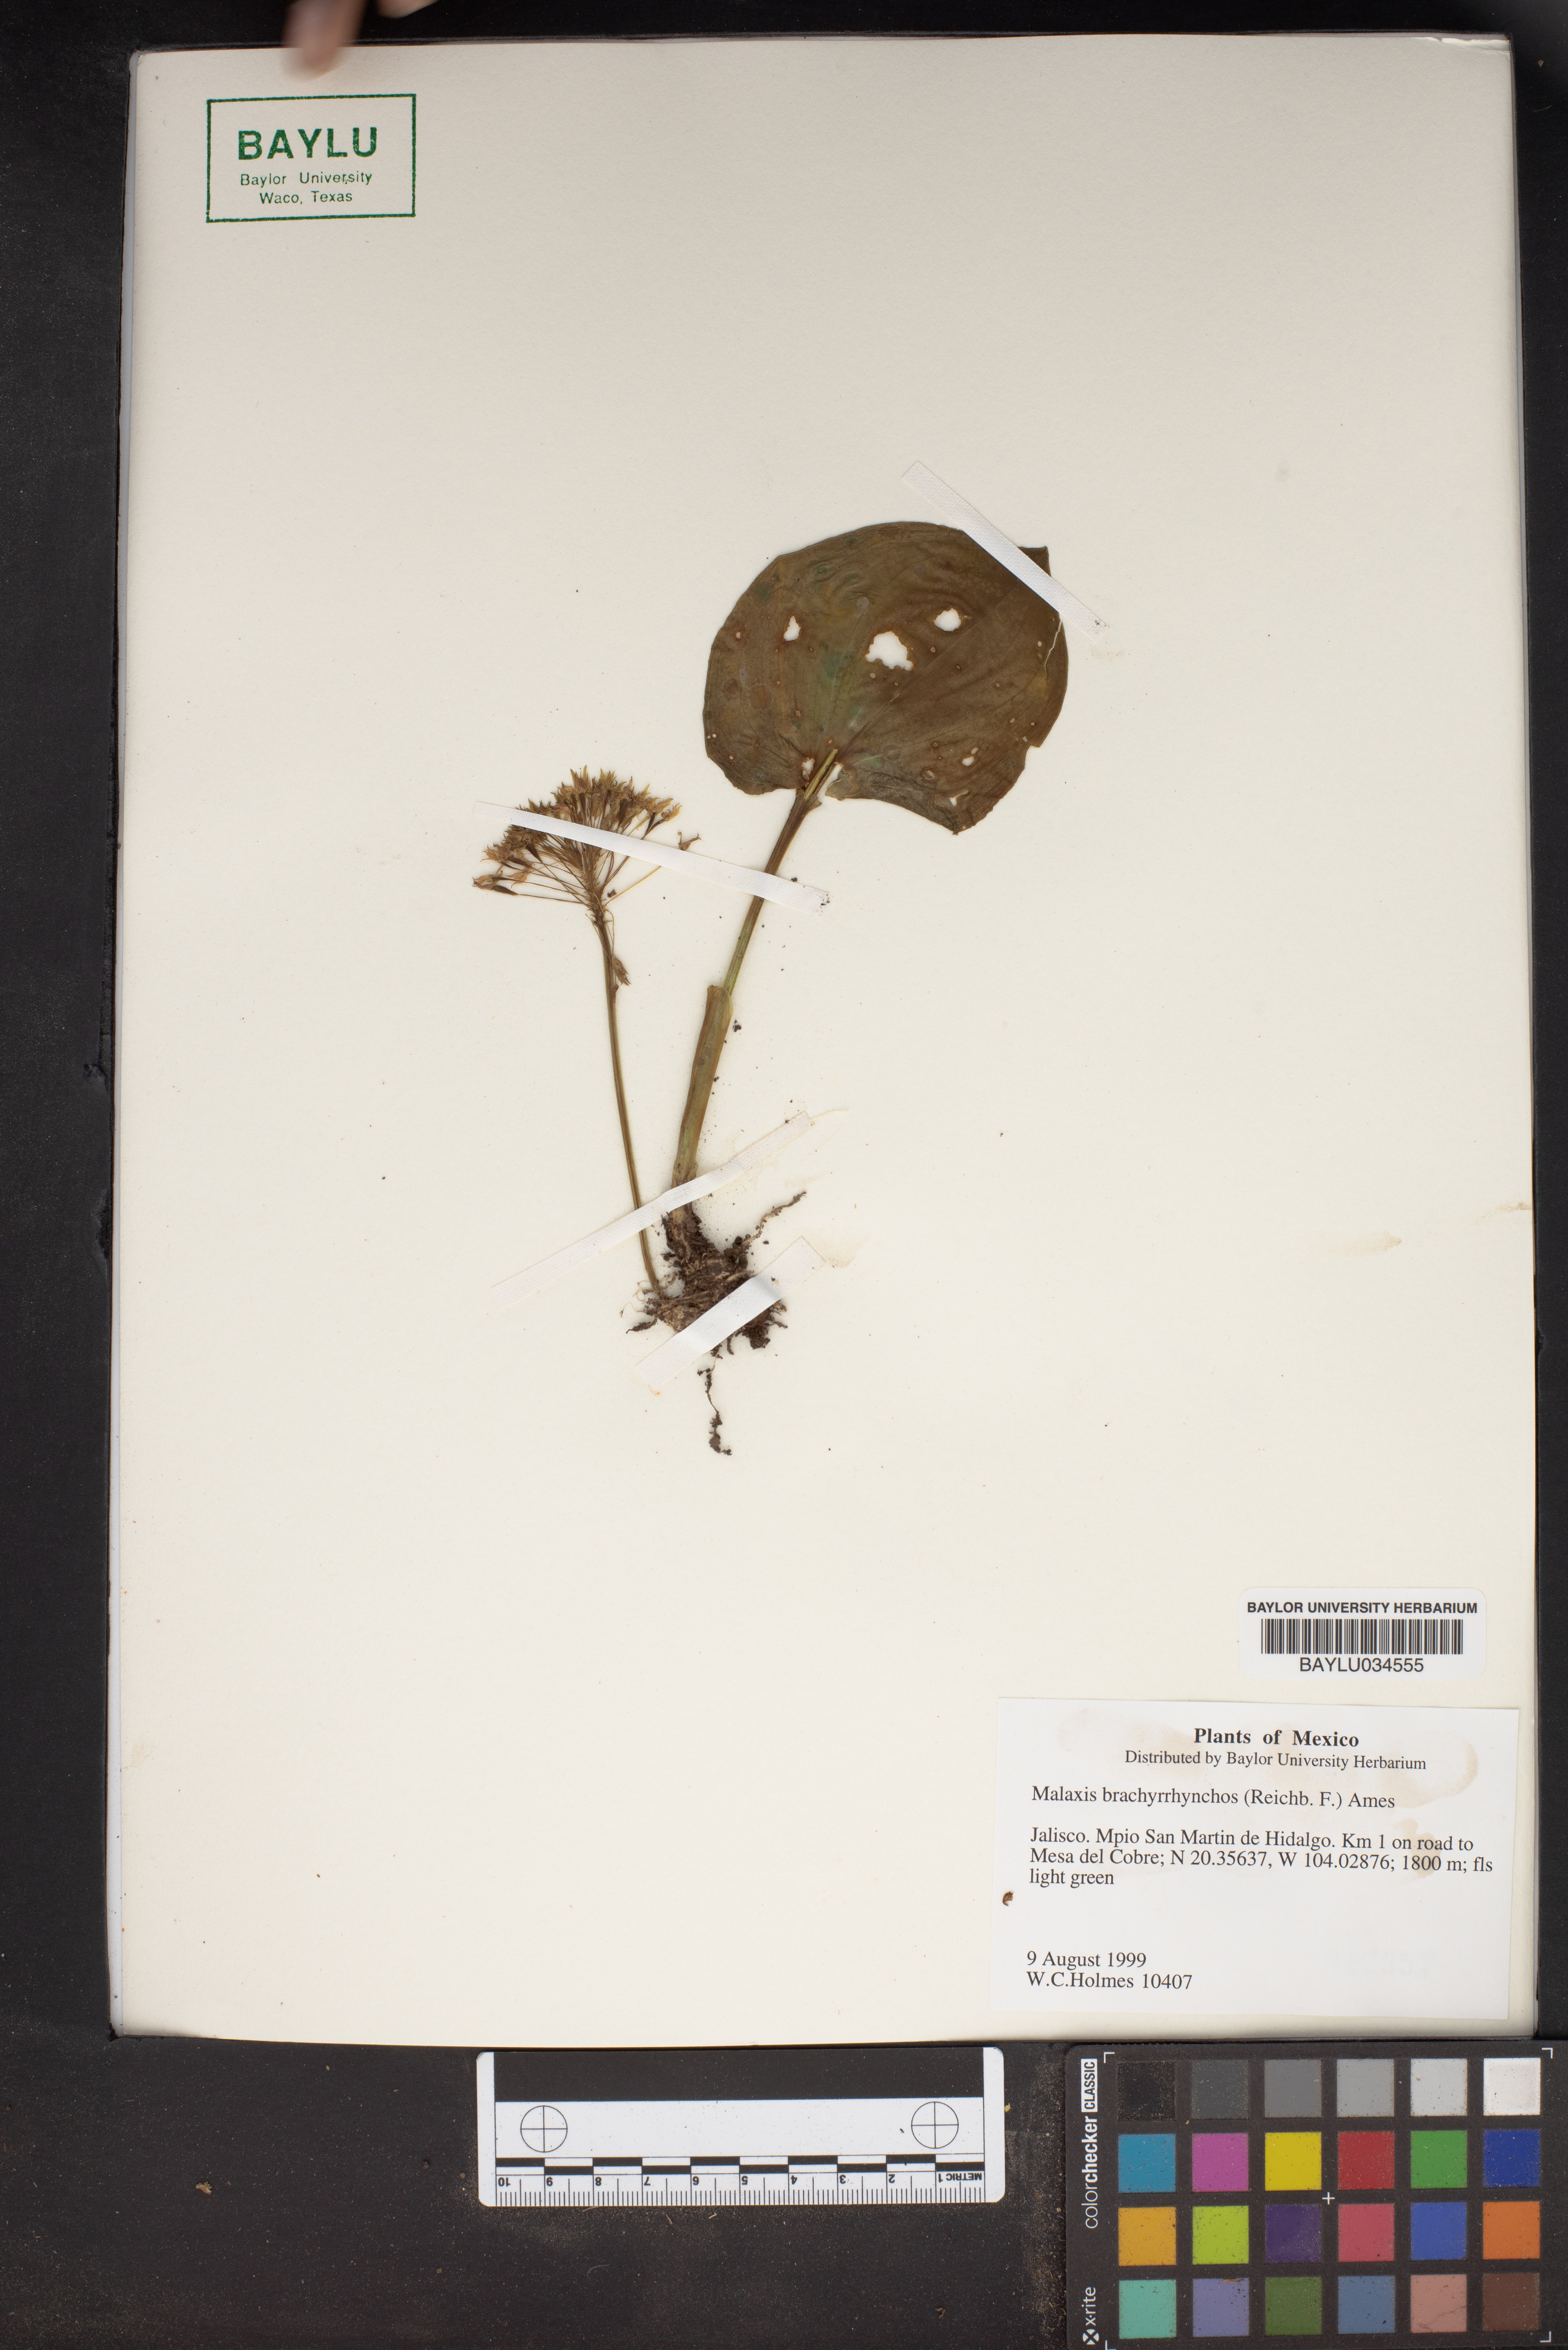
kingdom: Plantae
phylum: Tracheophyta
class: Liliopsida
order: Asparagales
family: Orchidaceae
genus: Malaxis
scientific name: Malaxis brachyrrhynchos
